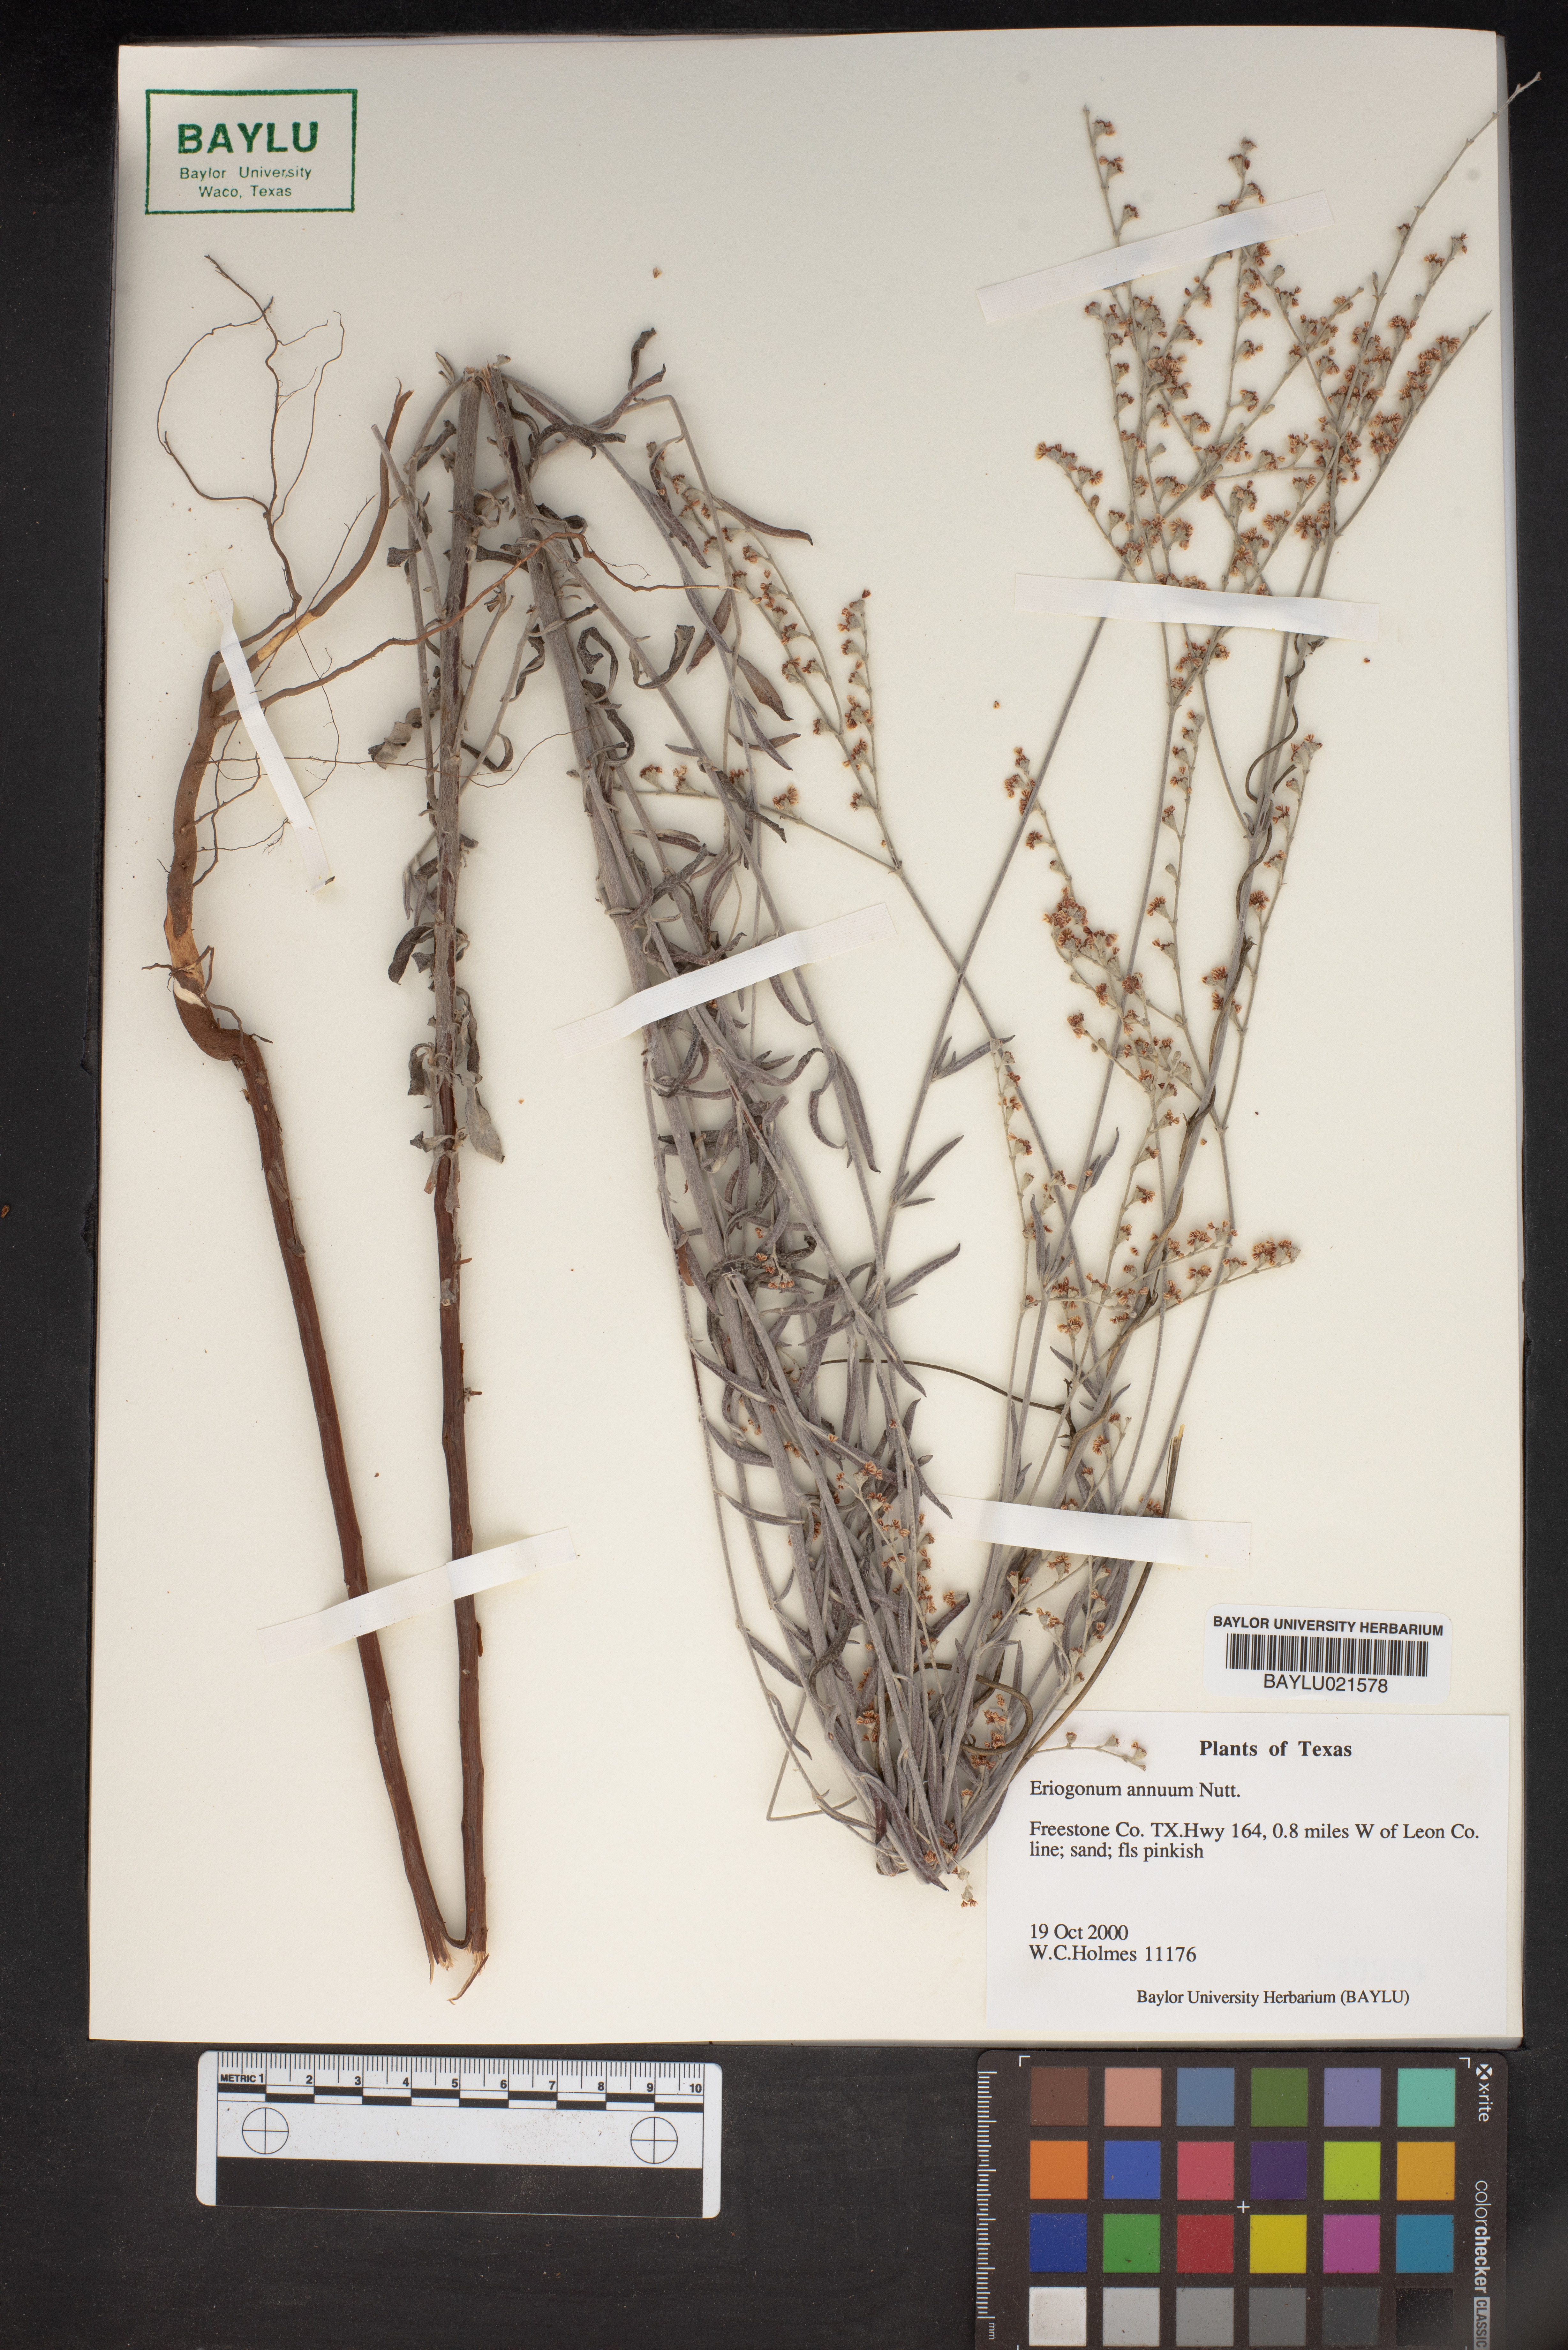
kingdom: Plantae
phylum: Tracheophyta
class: Magnoliopsida
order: Caryophyllales
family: Polygonaceae
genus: Eriogonum
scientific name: Eriogonum annuum
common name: Annual wild buckwheat
